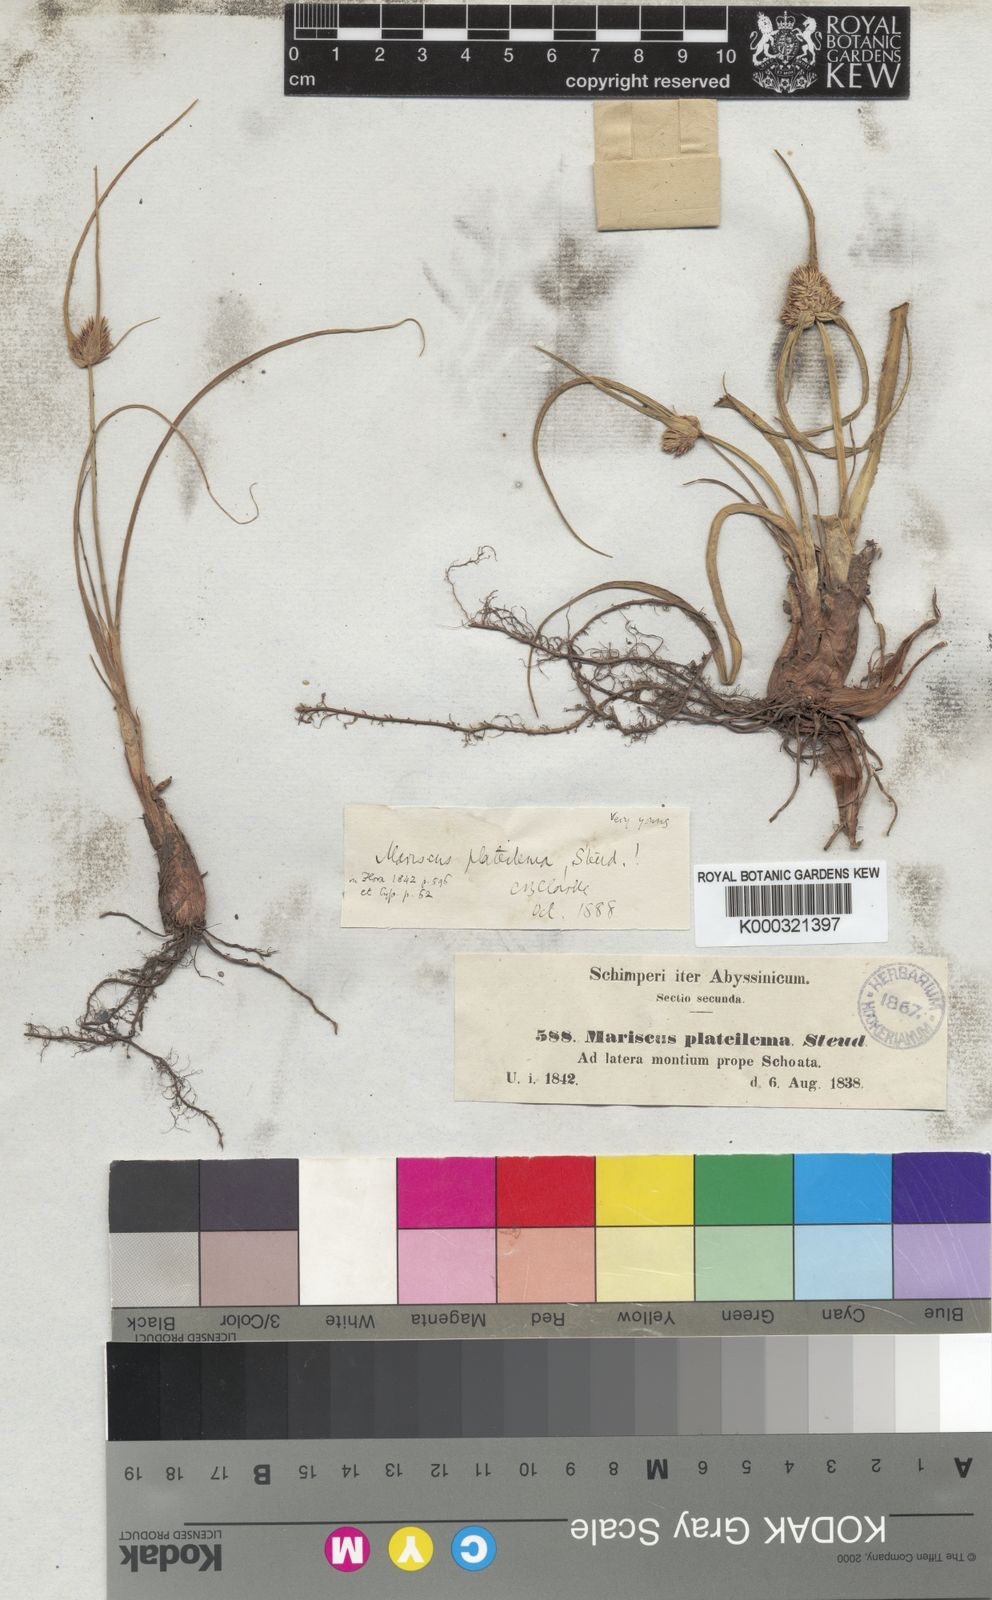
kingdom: Plantae
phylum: Tracheophyta
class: Liliopsida
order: Poales
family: Cyperaceae
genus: Cyperus
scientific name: Cyperus
